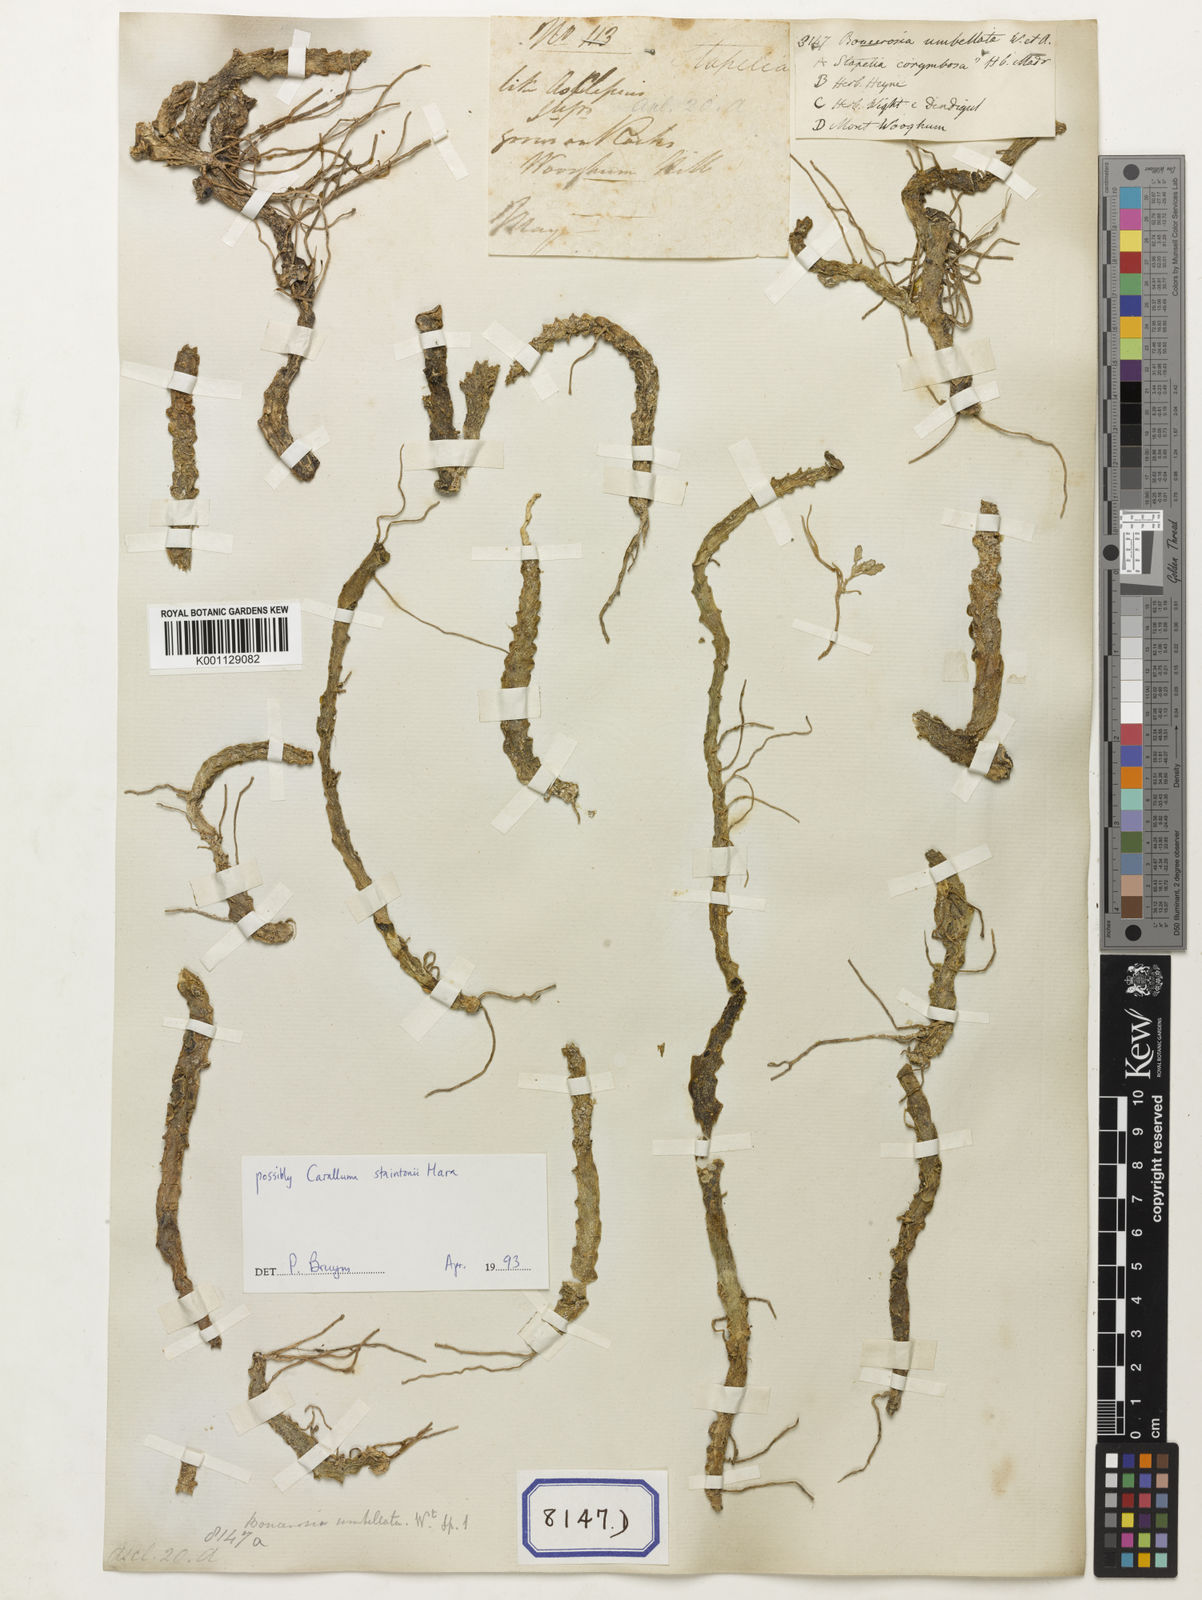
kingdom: Plantae
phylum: Tracheophyta
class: Magnoliopsida
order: Gentianales
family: Apocynaceae
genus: Ceropegia
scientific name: Ceropegia umbellata
